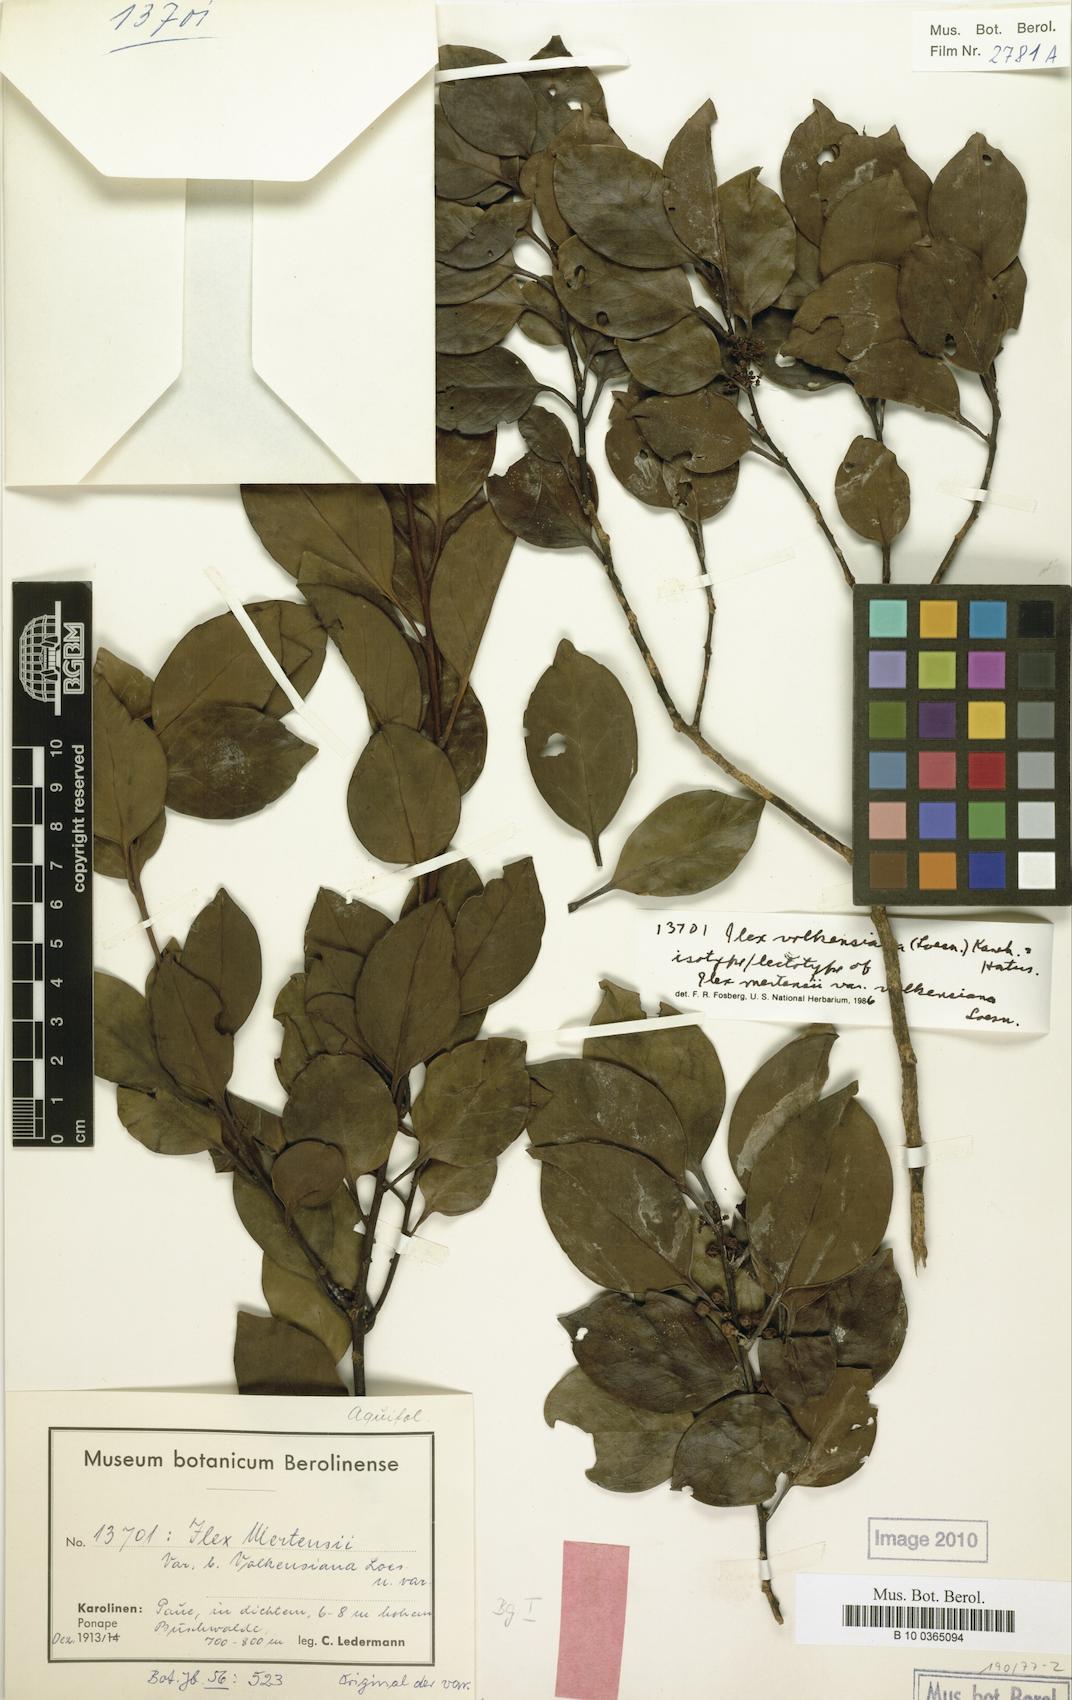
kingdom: Plantae
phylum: Tracheophyta
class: Magnoliopsida
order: Aquifoliales
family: Aquifoliaceae
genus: Ilex
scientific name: Ilex volkensiana
